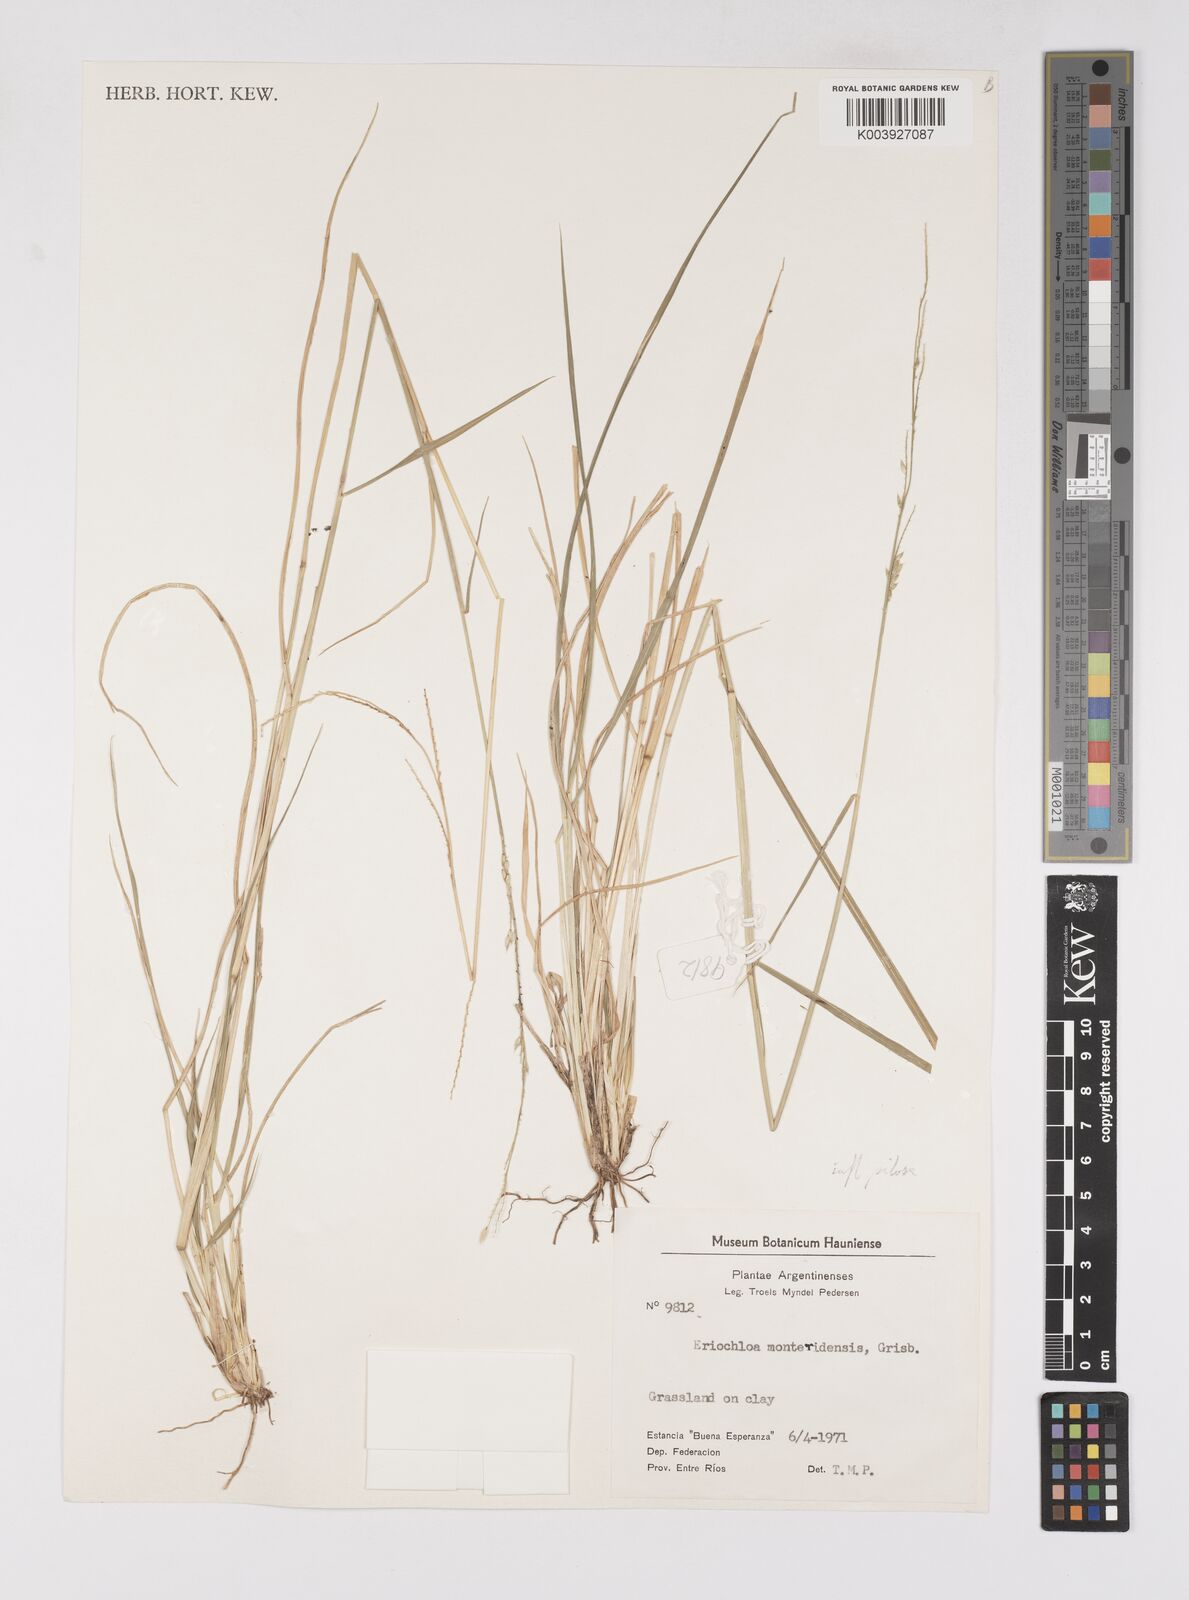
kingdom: Plantae
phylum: Tracheophyta
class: Liliopsida
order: Poales
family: Poaceae
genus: Eriochloa
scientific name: Eriochloa punctata
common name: Louisiana cupgrass
